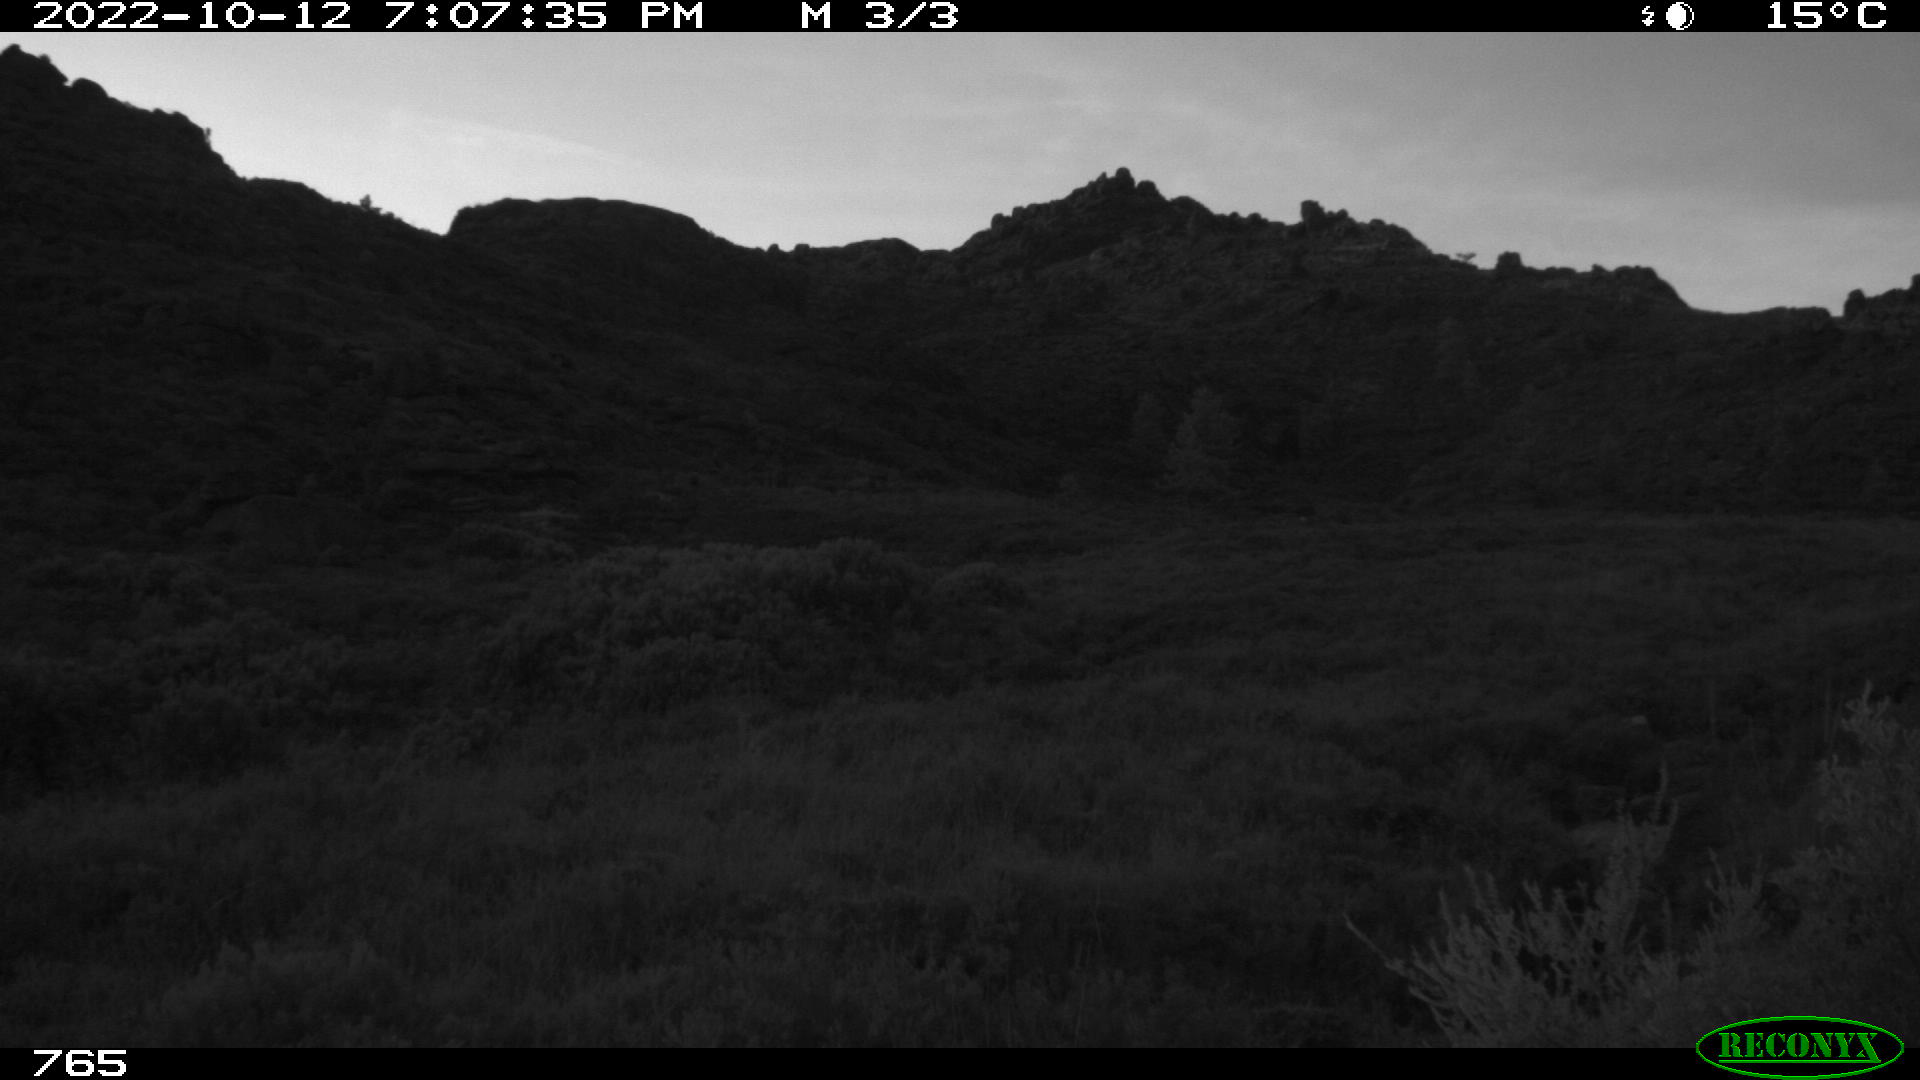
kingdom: Animalia
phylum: Chordata
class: Mammalia
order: Artiodactyla
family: Suidae
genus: Sus
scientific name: Sus scrofa
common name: Wild boar
